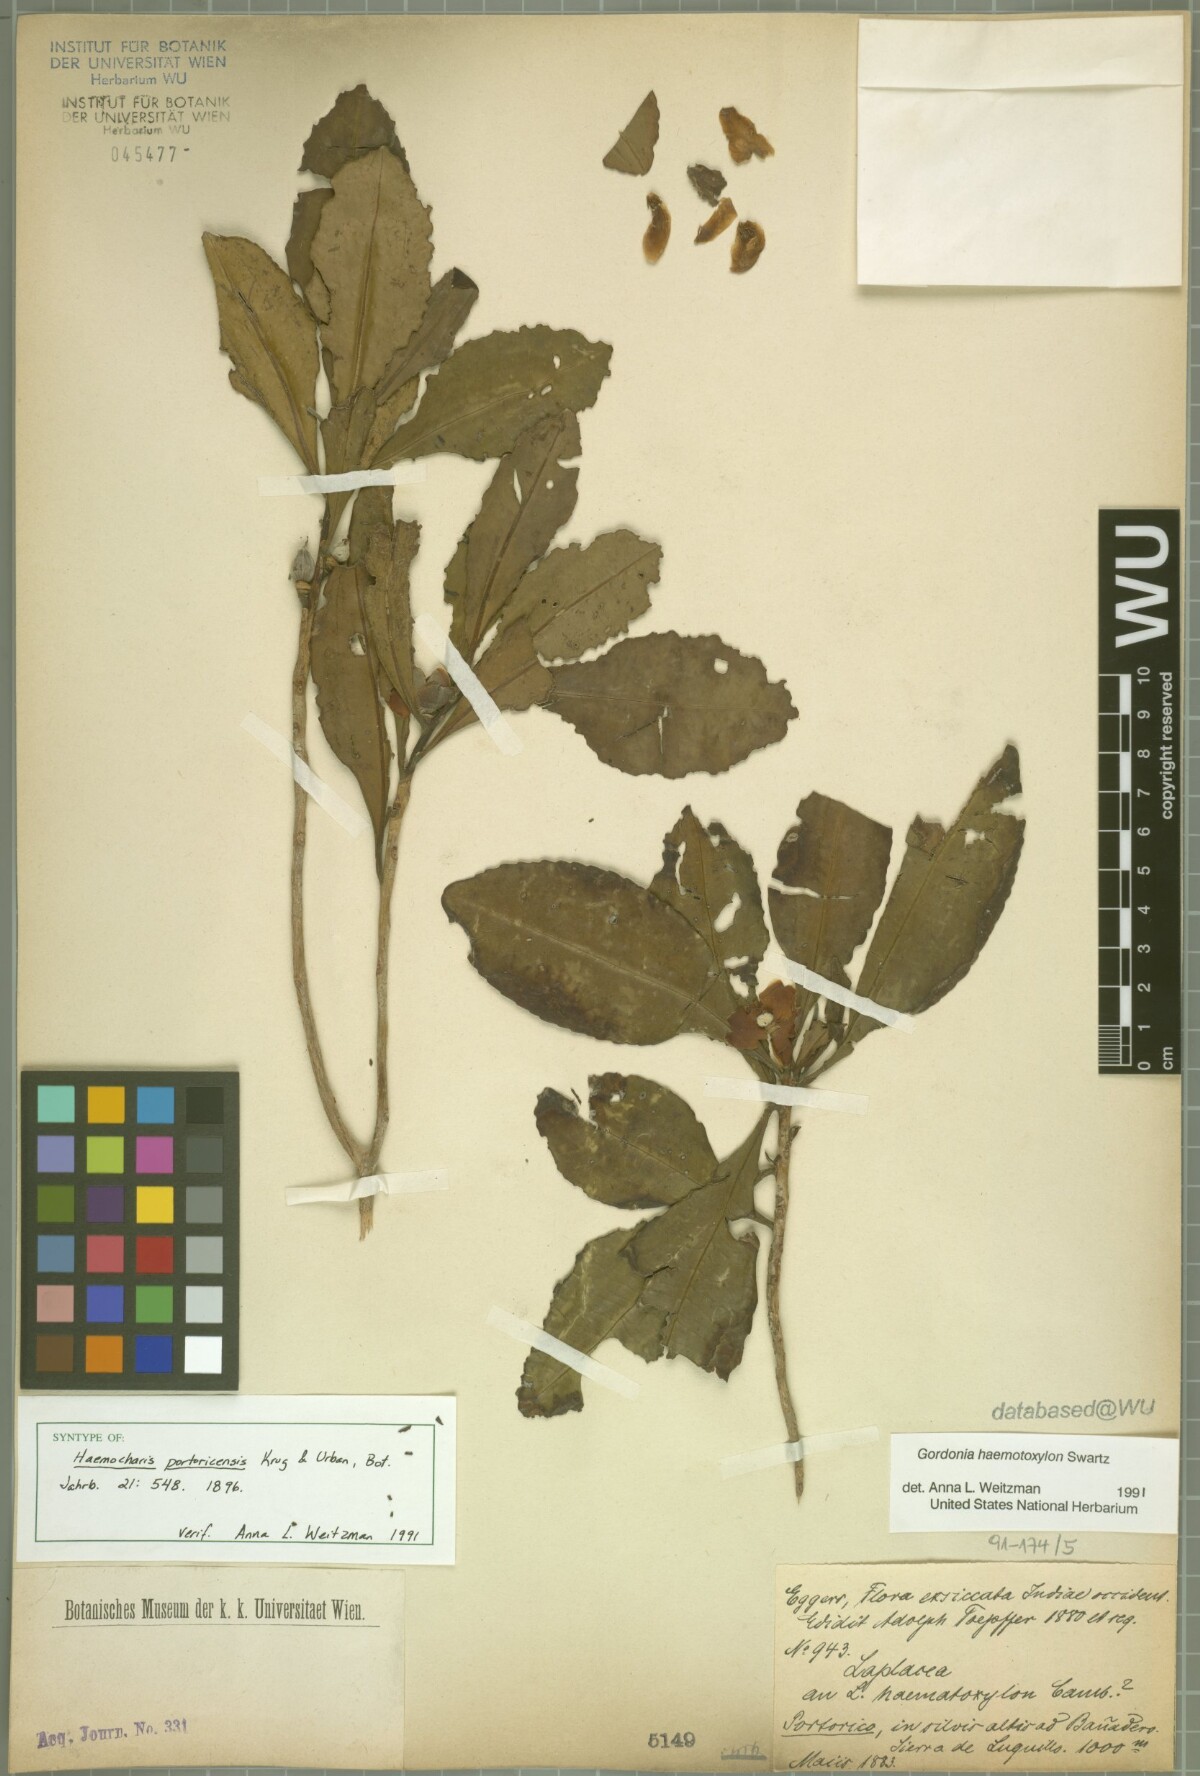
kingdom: Plantae
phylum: Tracheophyta
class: Magnoliopsida
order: Ericales
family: Theaceae
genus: Gordonia
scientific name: Gordonia portoricensis
